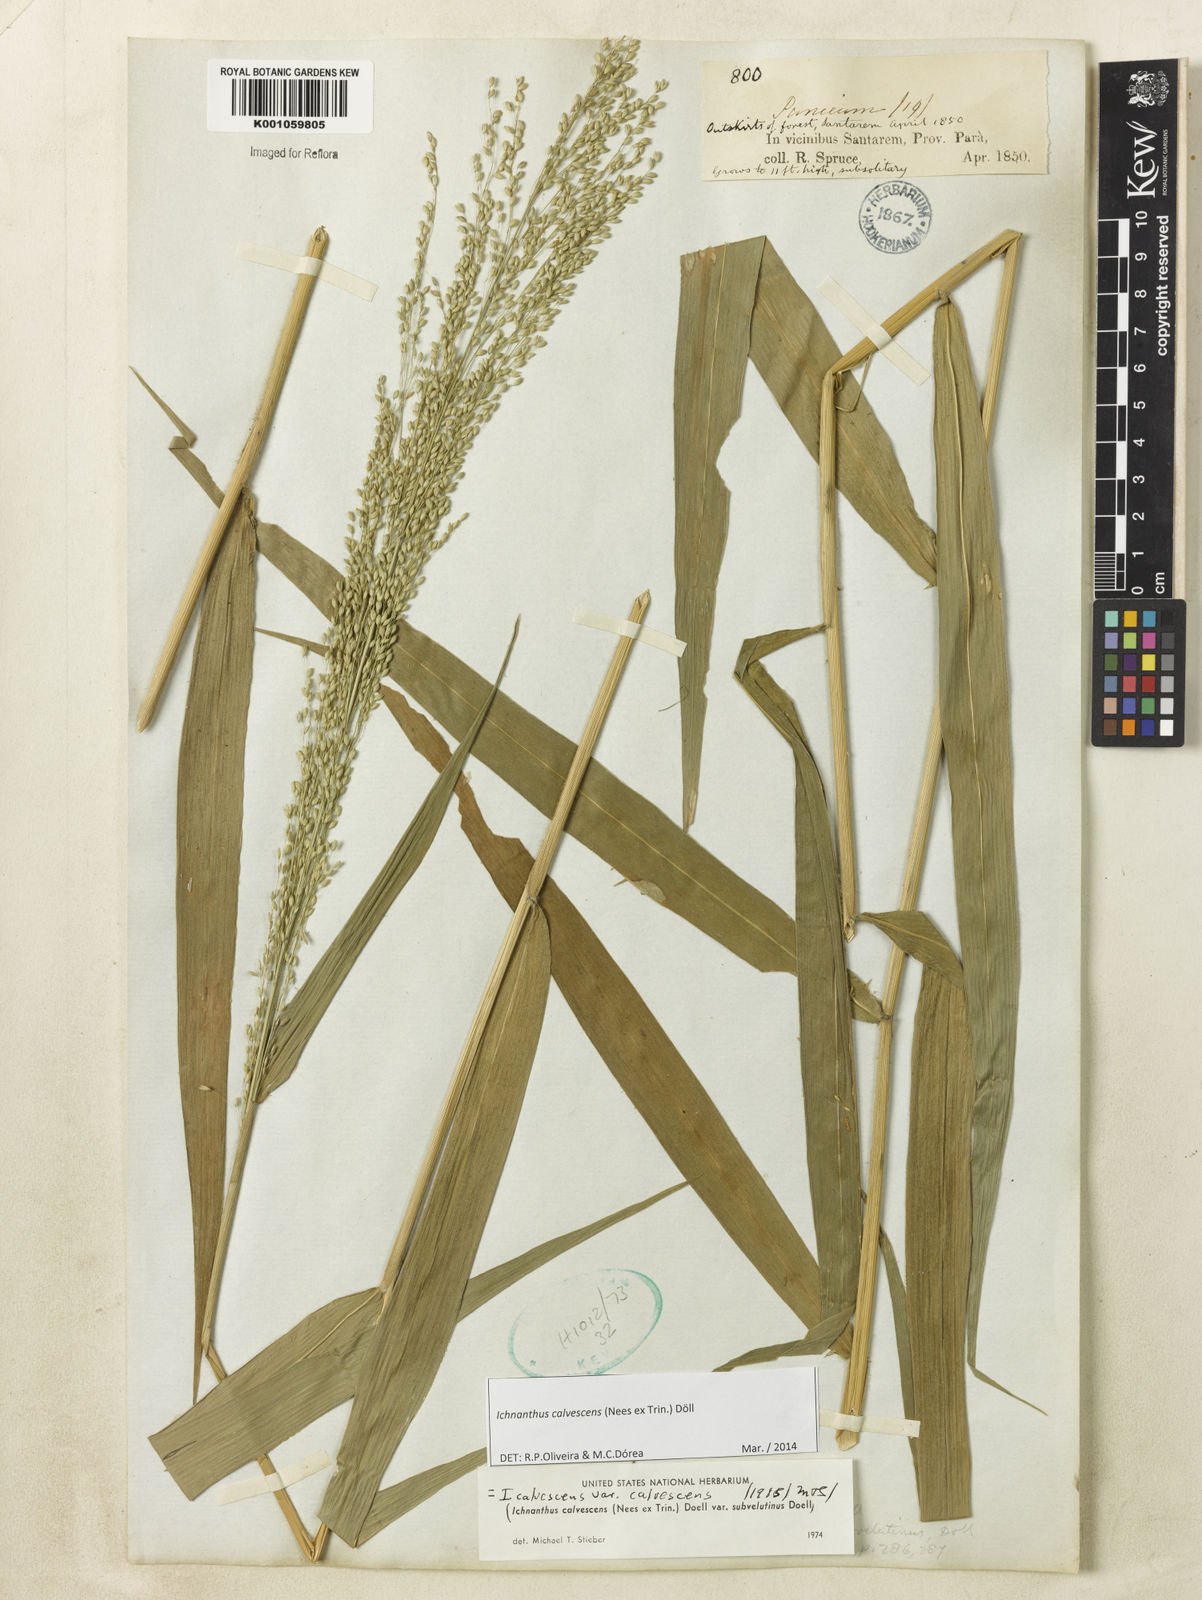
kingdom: Plantae
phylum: Tracheophyta
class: Liliopsida
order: Poales
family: Poaceae
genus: Ichnanthus
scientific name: Ichnanthus
